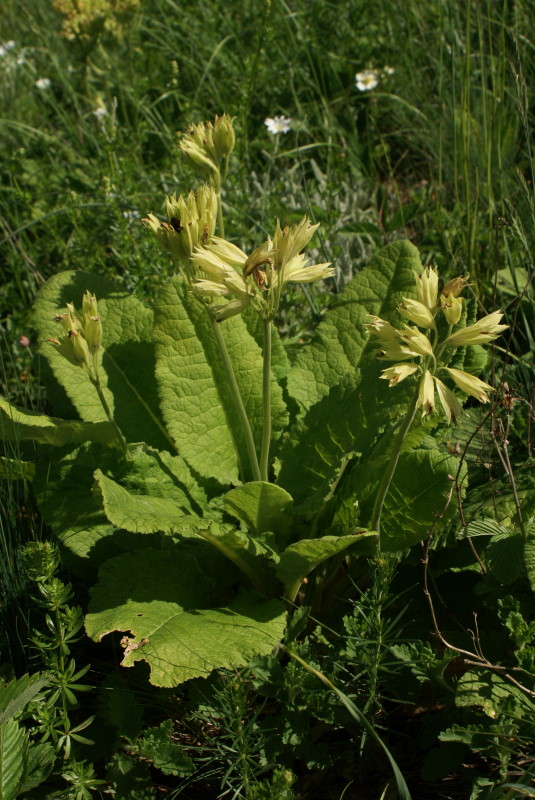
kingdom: Plantae
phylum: Tracheophyta
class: Magnoliopsida
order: Ericales
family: Primulaceae
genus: Primula
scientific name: Primula veris
